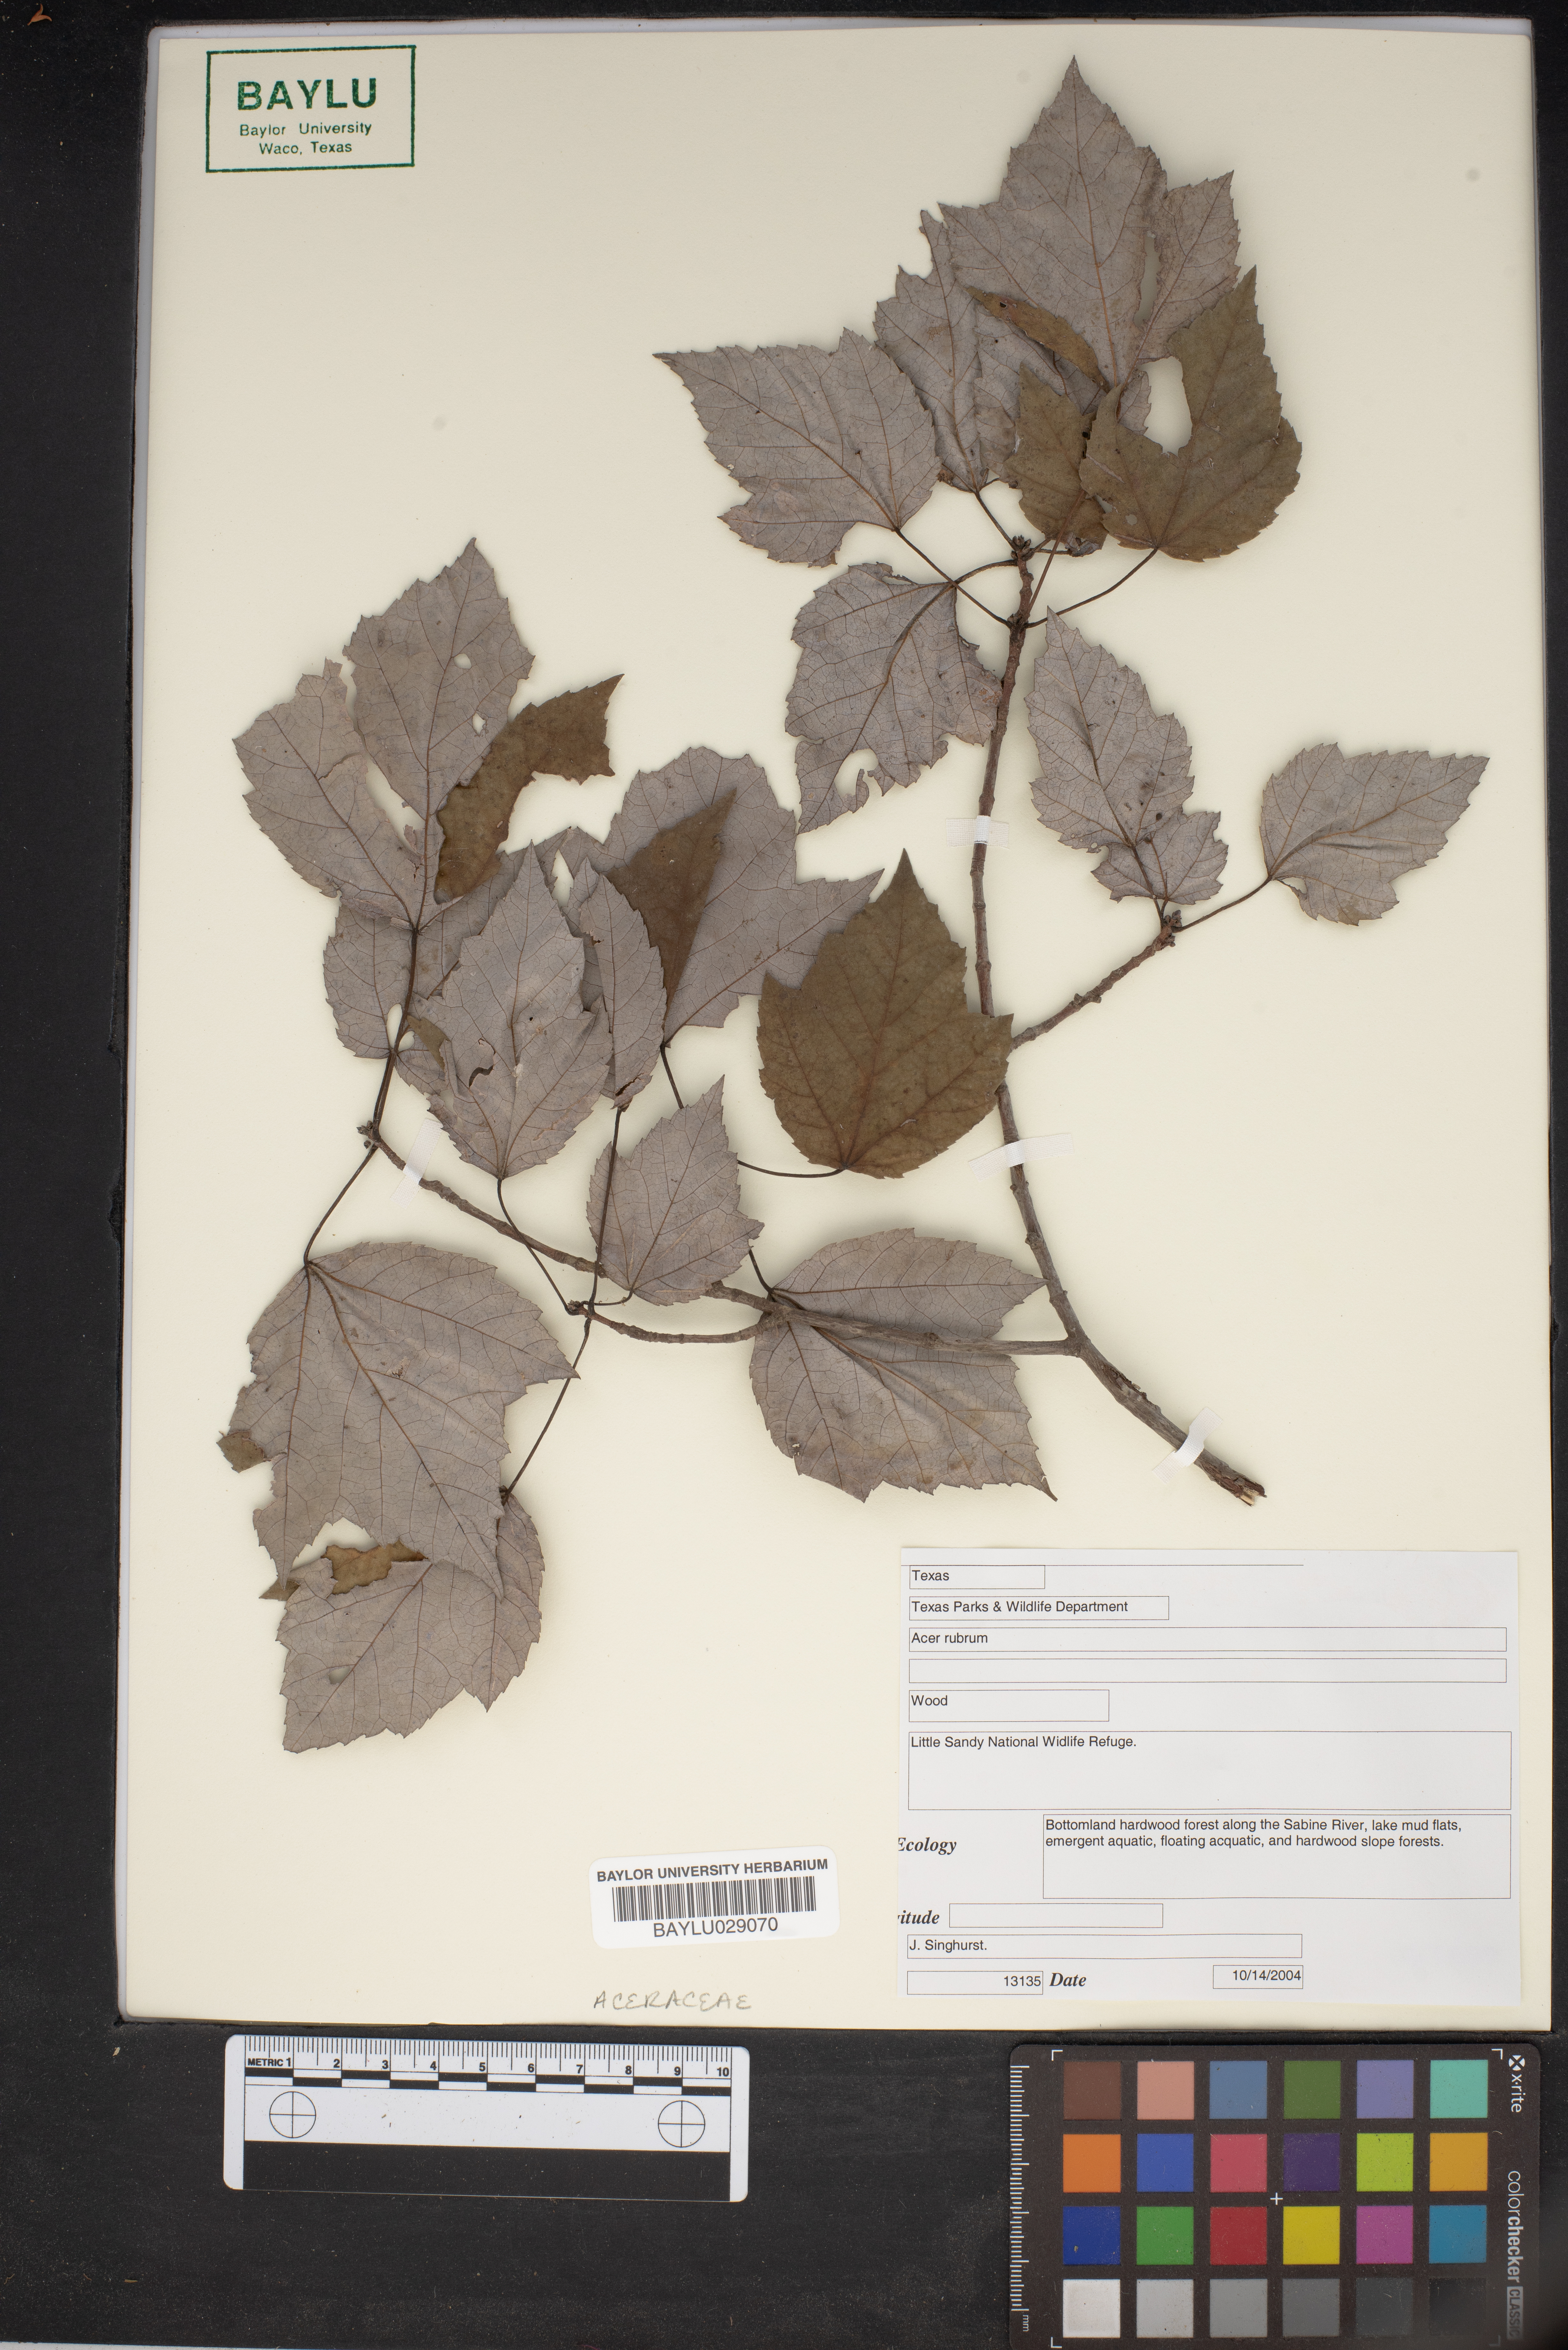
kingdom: Plantae
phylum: Tracheophyta
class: Magnoliopsida
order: Sapindales
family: Sapindaceae
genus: Acer
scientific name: Acer rubrum
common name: Red maple
